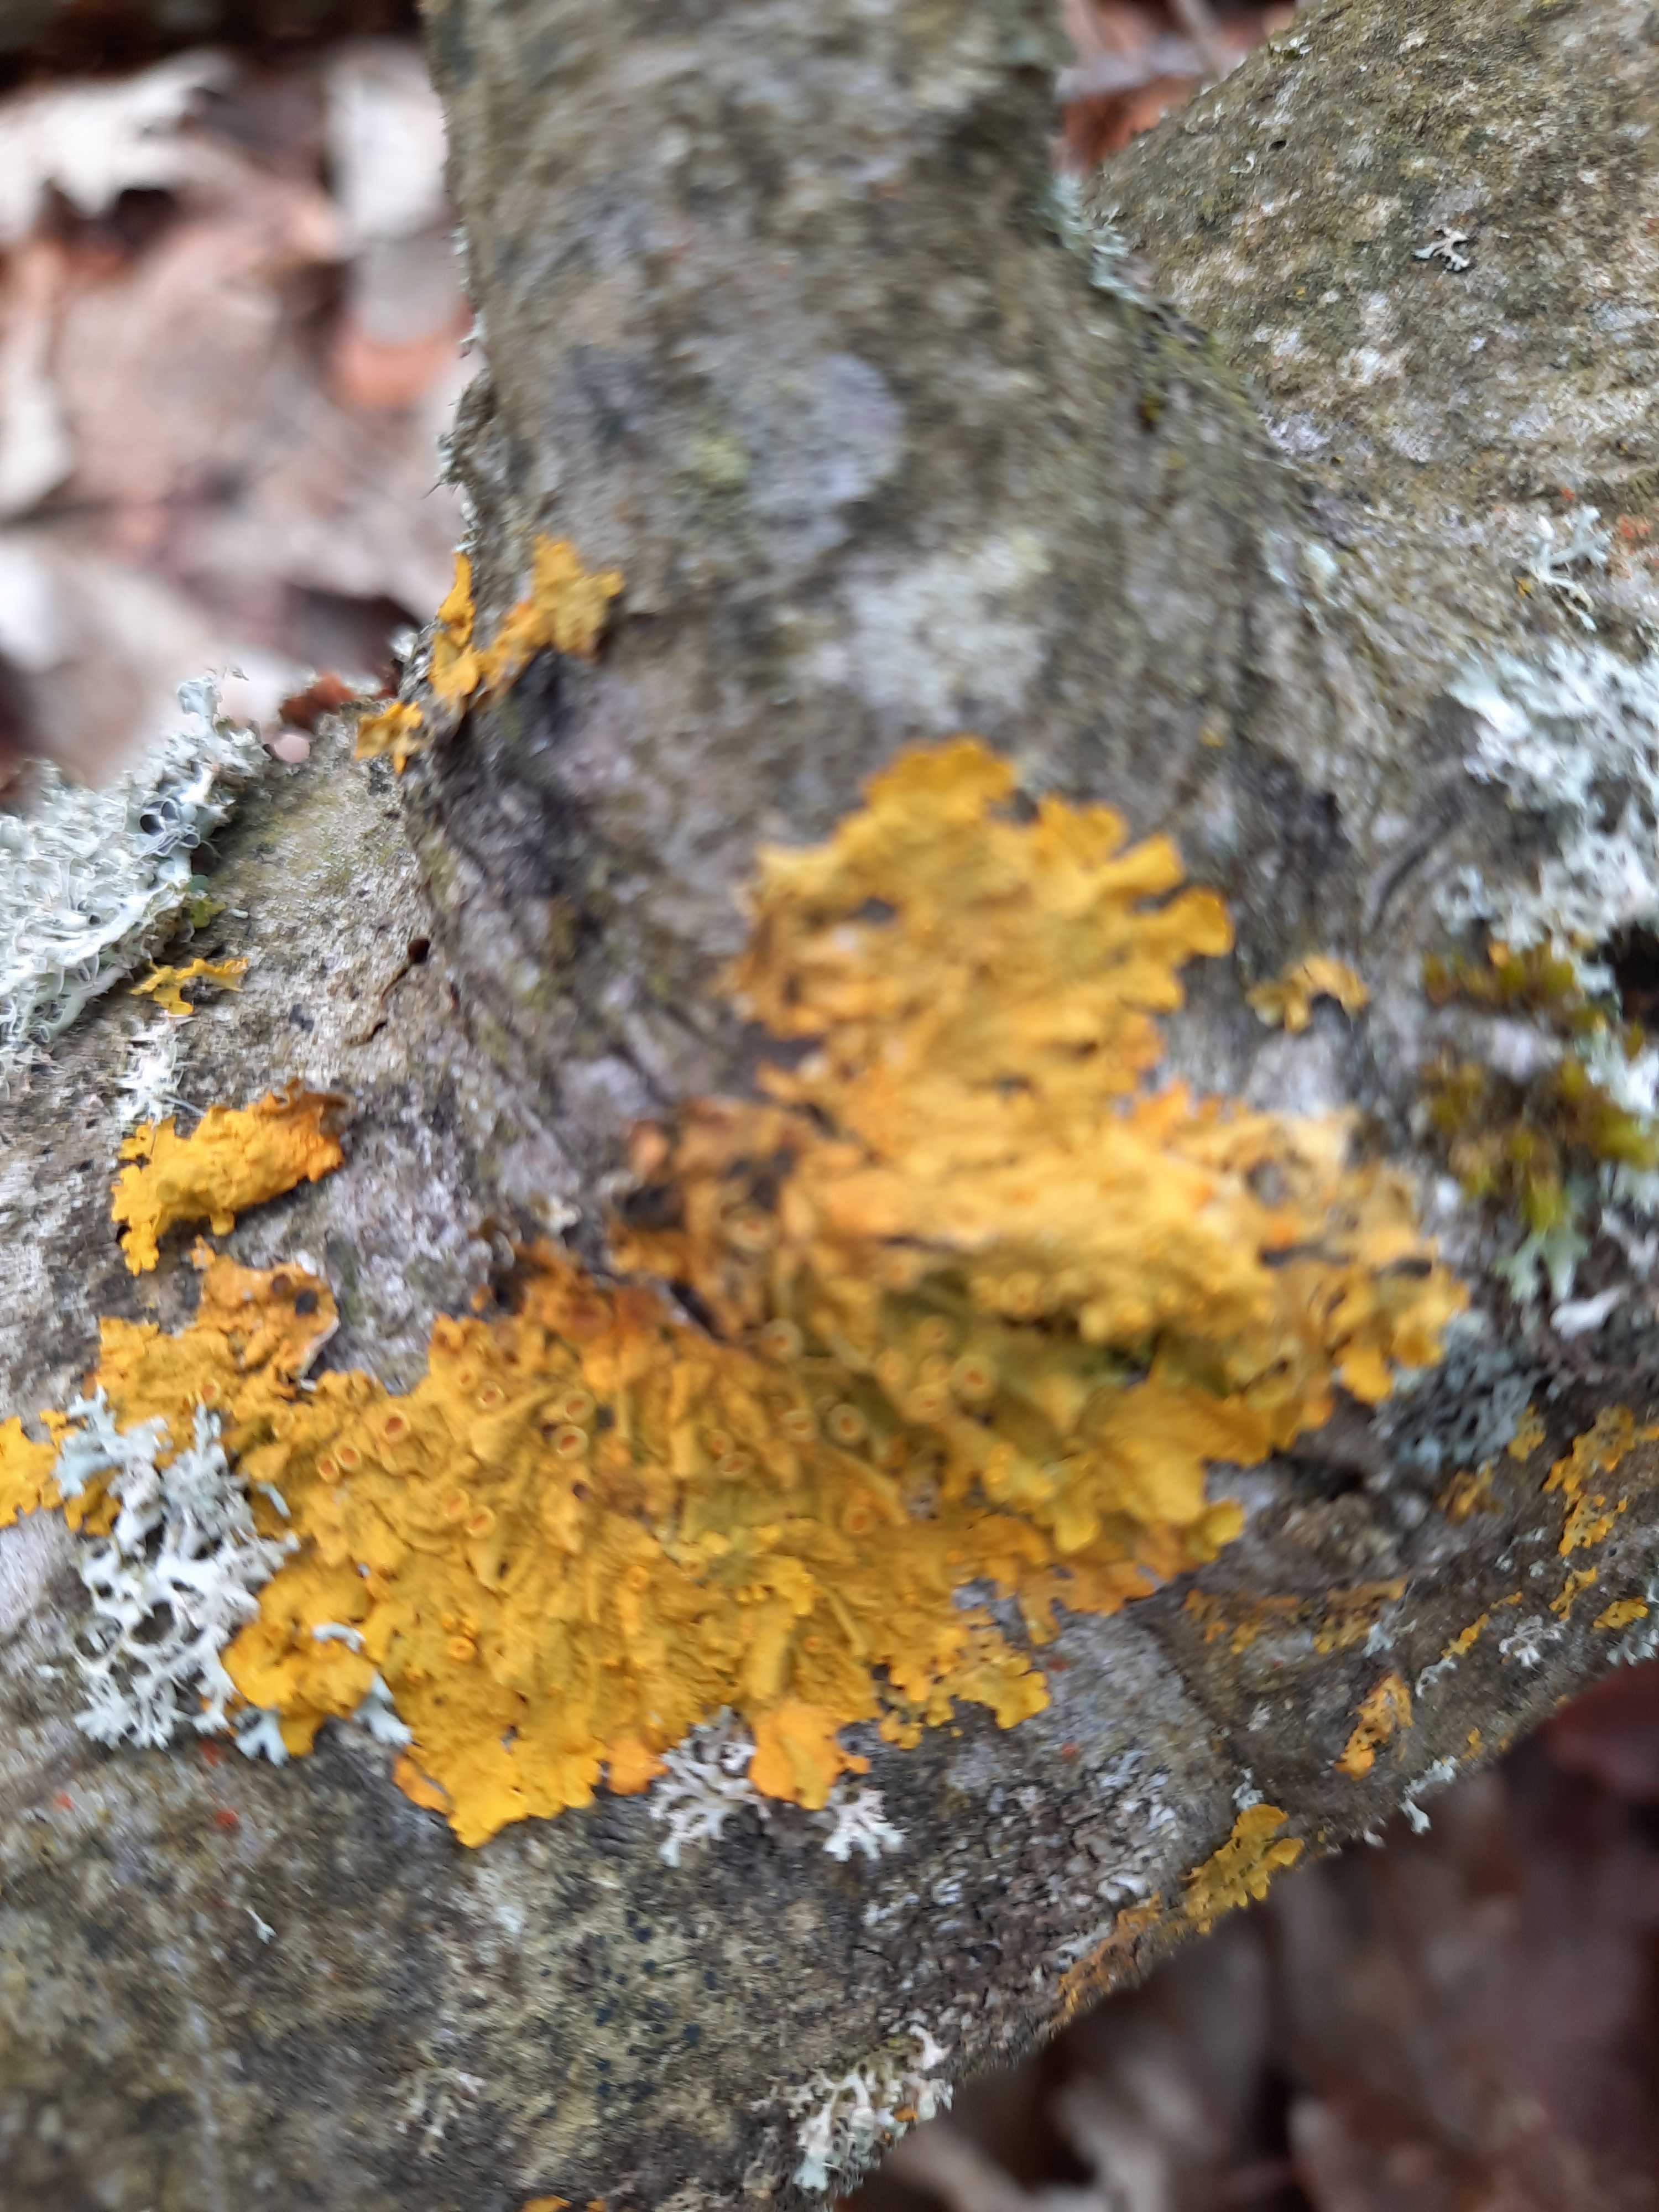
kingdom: Fungi
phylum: Ascomycota
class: Lecanoromycetes
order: Teloschistales
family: Teloschistaceae
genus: Xanthoria
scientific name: Xanthoria parietina
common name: almindelig væggelav
